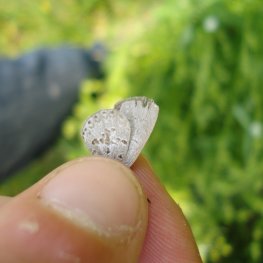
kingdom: Animalia
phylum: Arthropoda
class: Insecta
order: Lepidoptera
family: Lycaenidae
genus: Celastrina
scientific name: Celastrina lucia
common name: Northern Spring Azure
